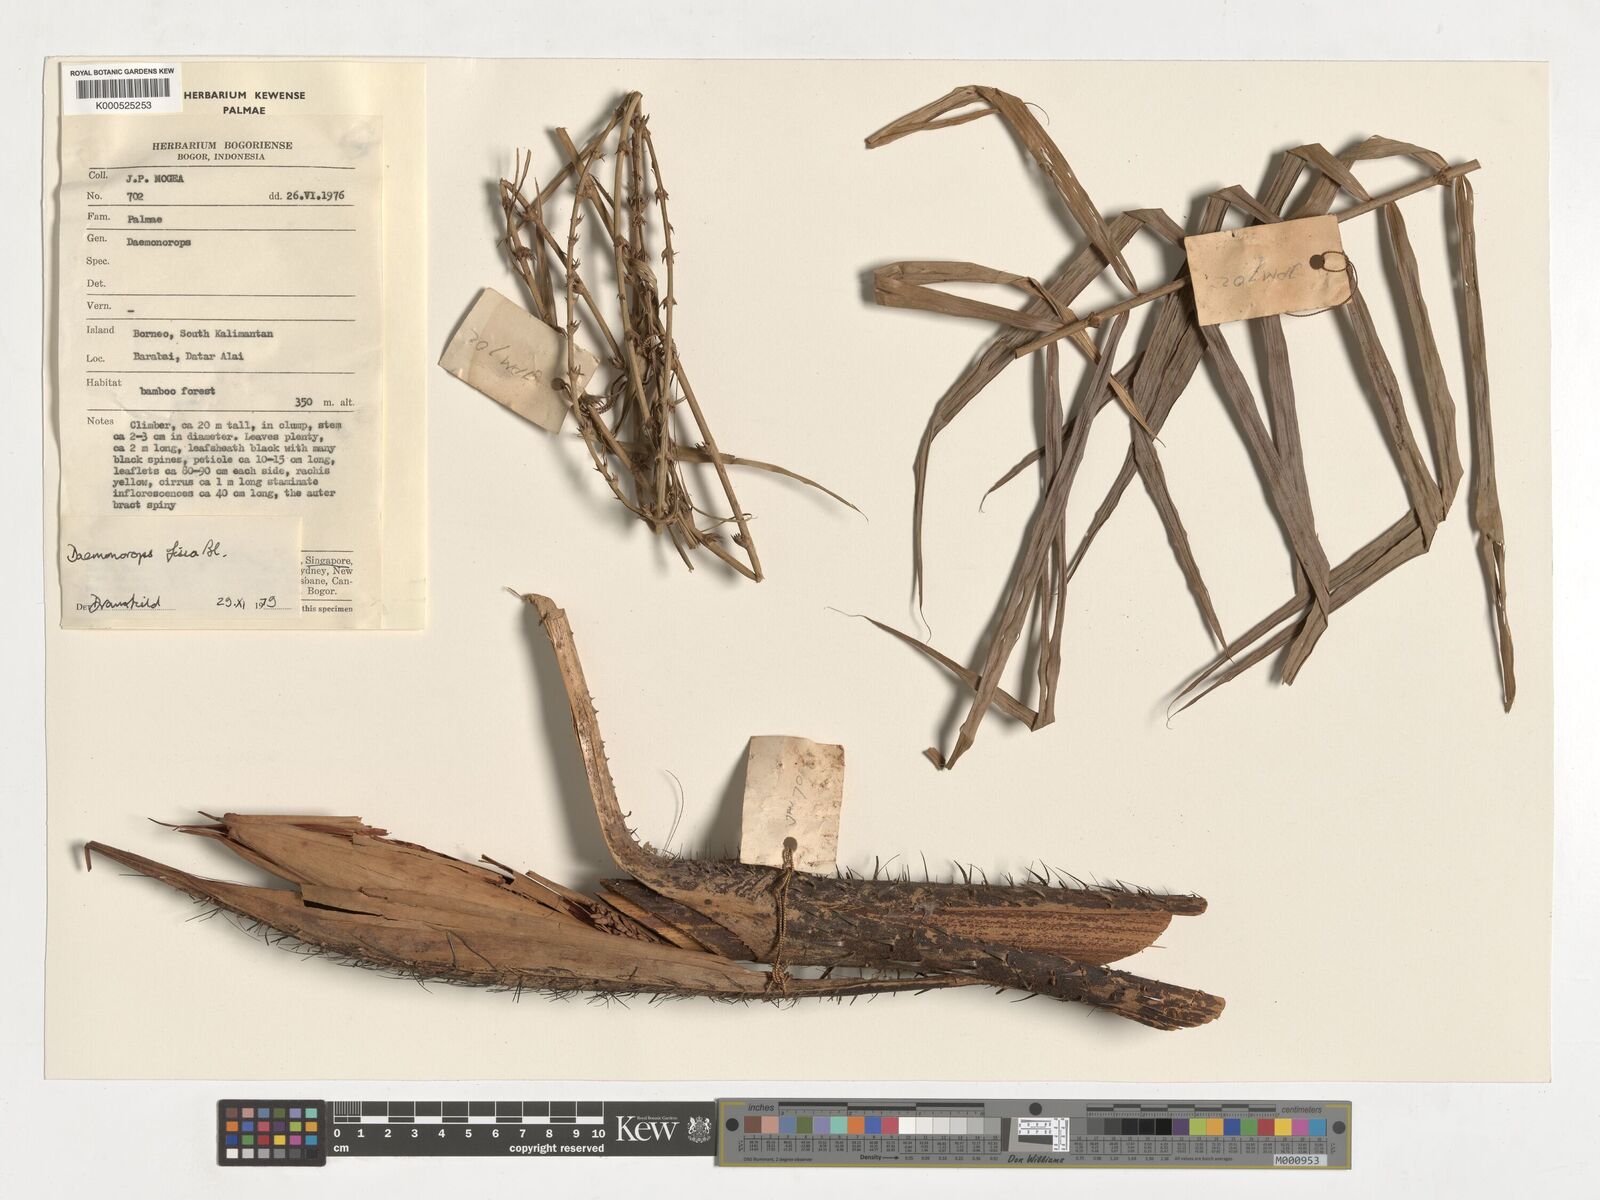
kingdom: Plantae
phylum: Tracheophyta
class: Liliopsida
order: Arecales
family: Arecaceae
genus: Calamus
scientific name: Calamus melanochaetes
